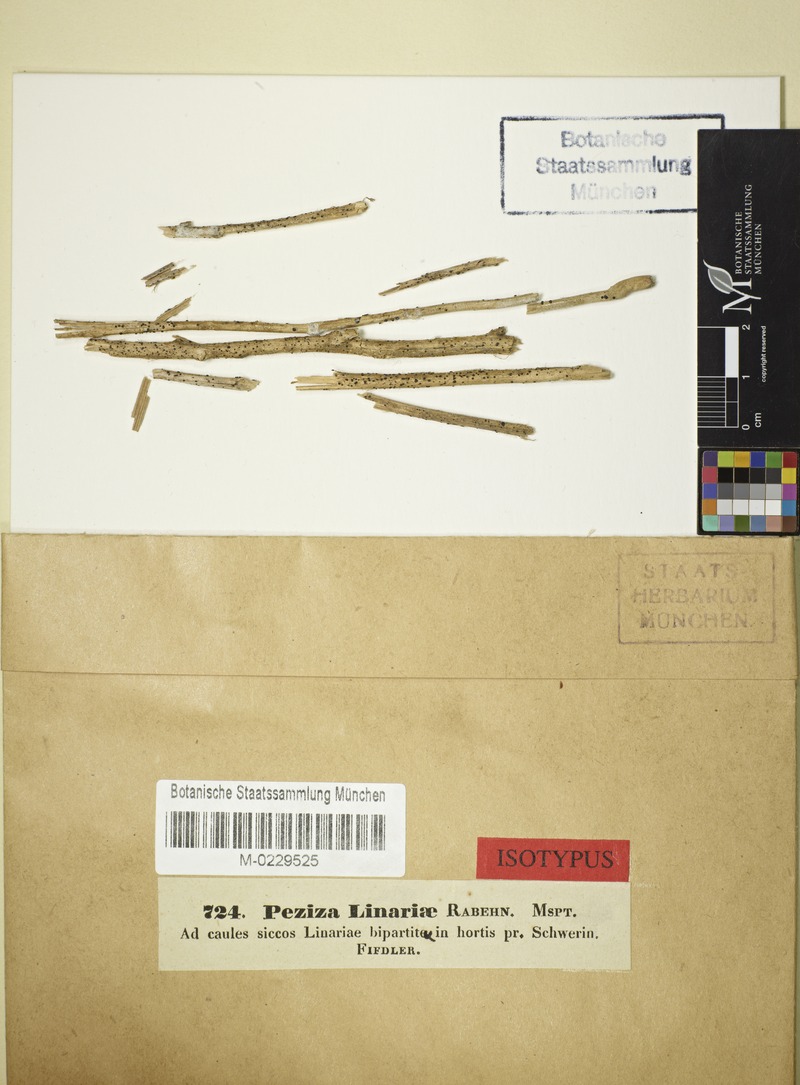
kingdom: Fungi
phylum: Ascomycota
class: Leotiomycetes
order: Helotiales
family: Heterosphaeriaceae
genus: Heterosphaeria
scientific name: Heterosphaeria linariae
